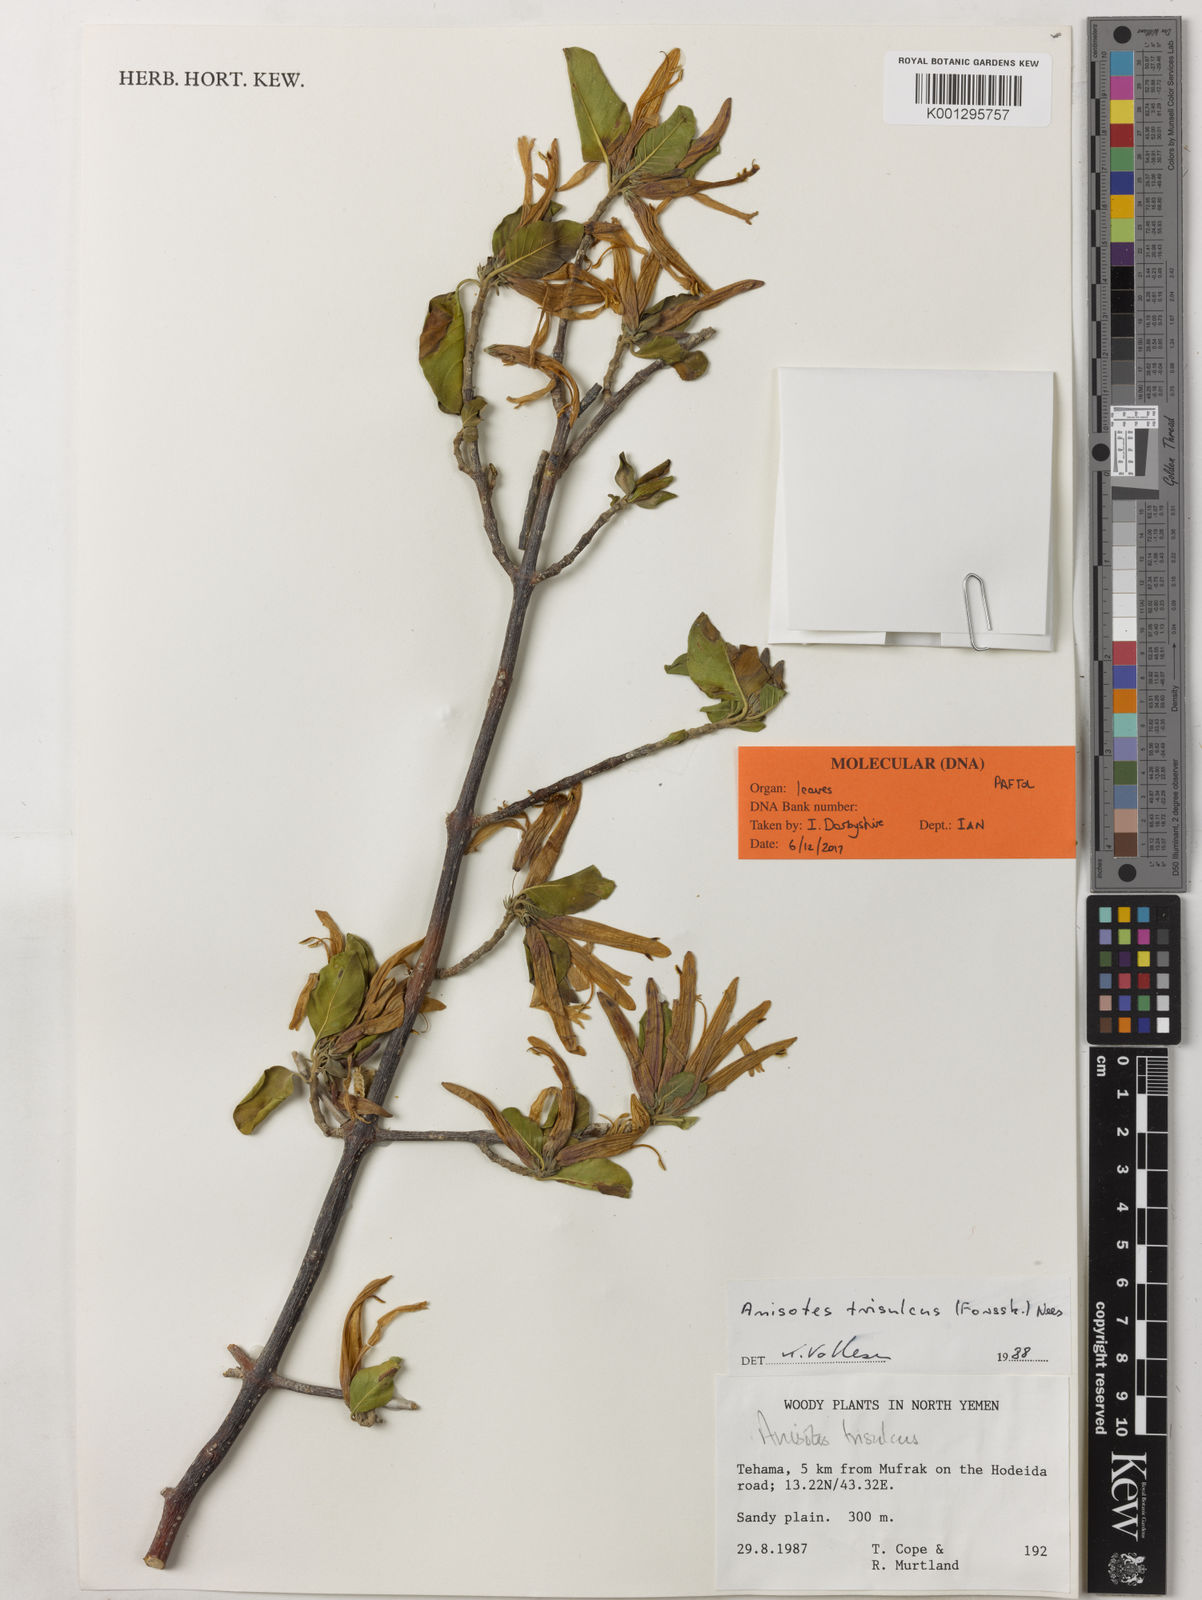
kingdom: Plantae
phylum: Tracheophyta
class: Magnoliopsida
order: Lamiales
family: Acanthaceae
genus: Anisotes
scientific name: Anisotes trisulcus
